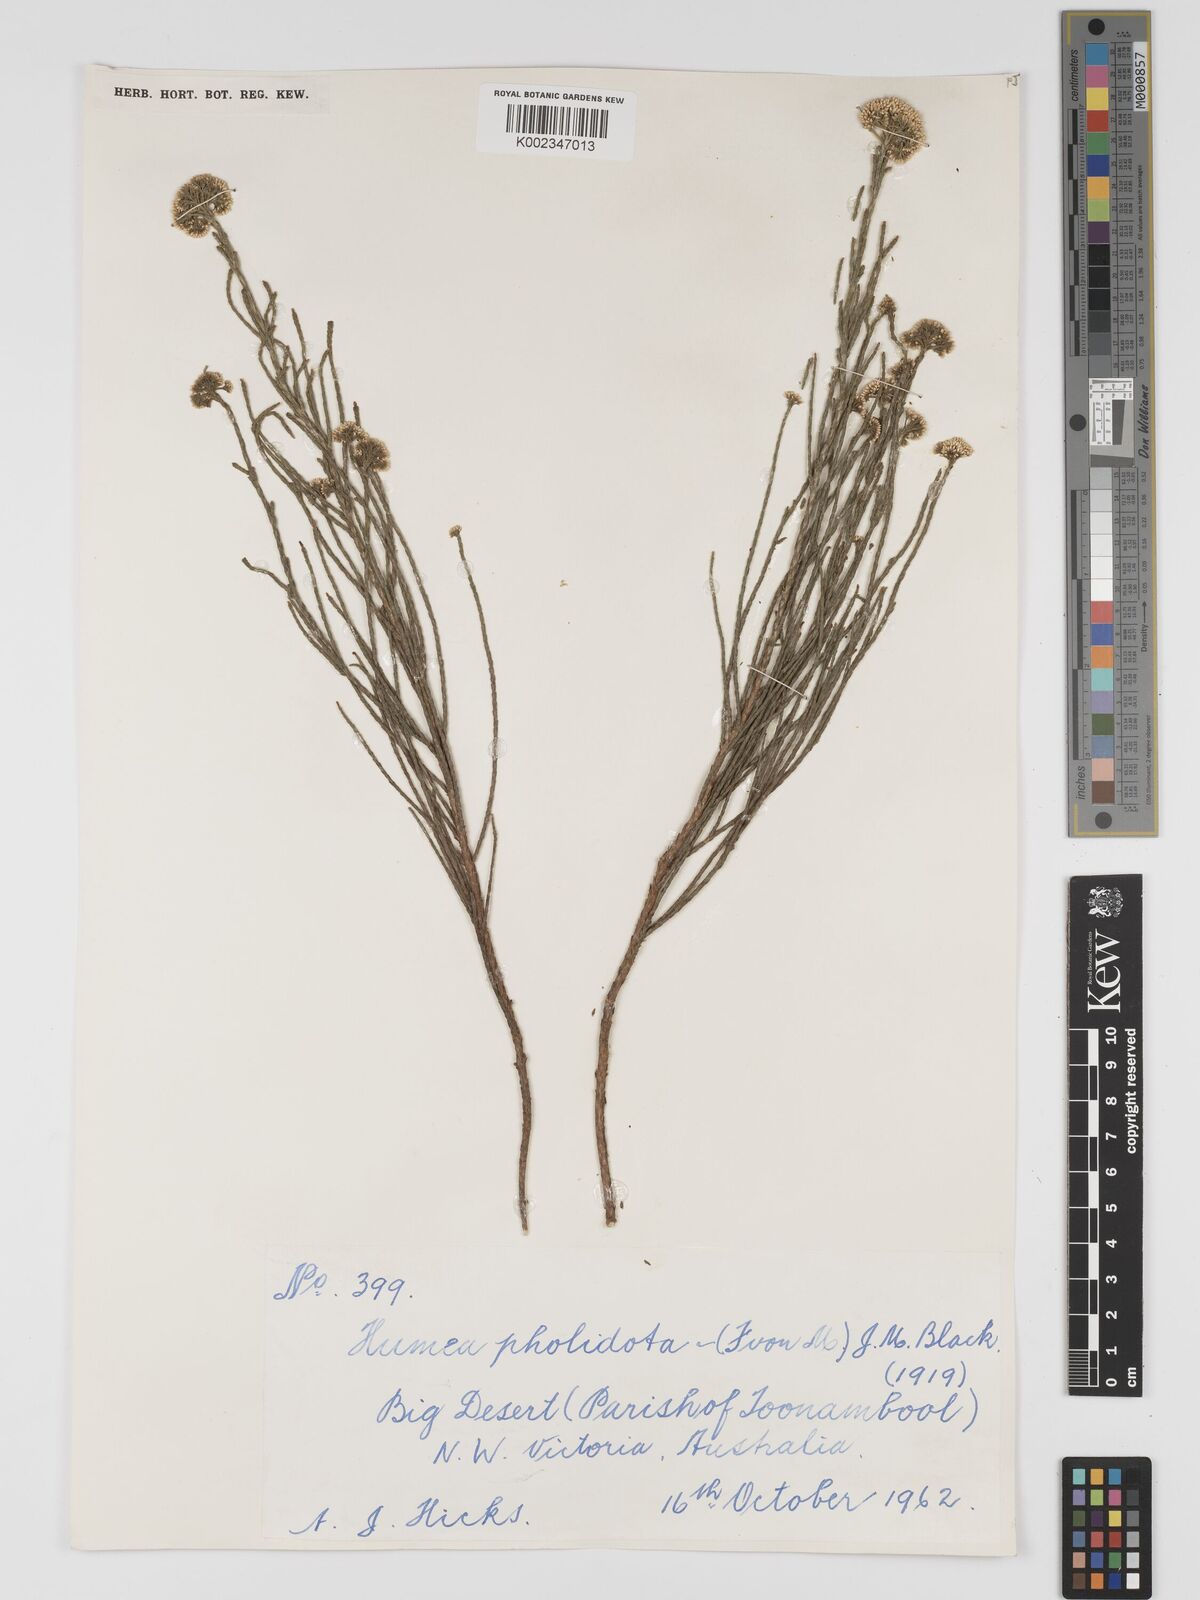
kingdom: Plantae
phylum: Tracheophyta
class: Magnoliopsida
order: Asterales
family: Asteraceae
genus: Haeckeria
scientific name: Haeckeria pholidota
